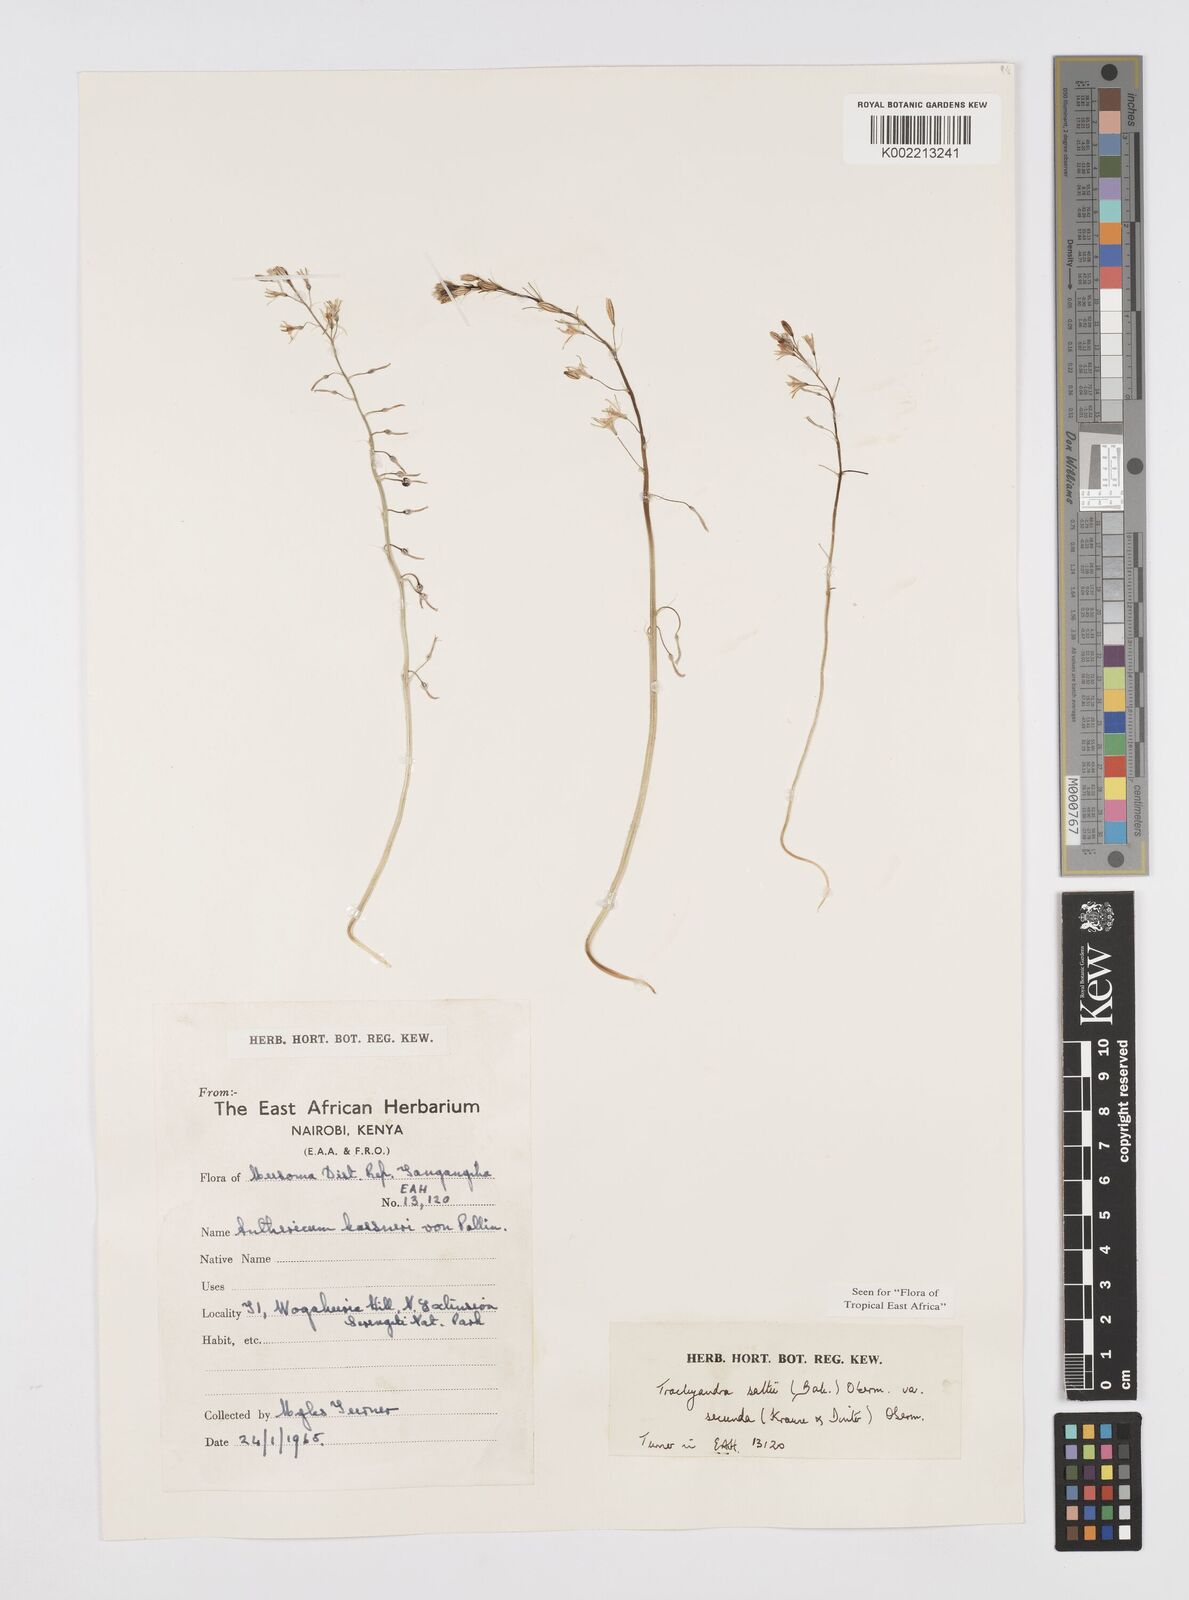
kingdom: Plantae
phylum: Tracheophyta
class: Liliopsida
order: Asparagales
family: Asphodelaceae
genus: Trachyandra
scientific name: Trachyandra saltii
